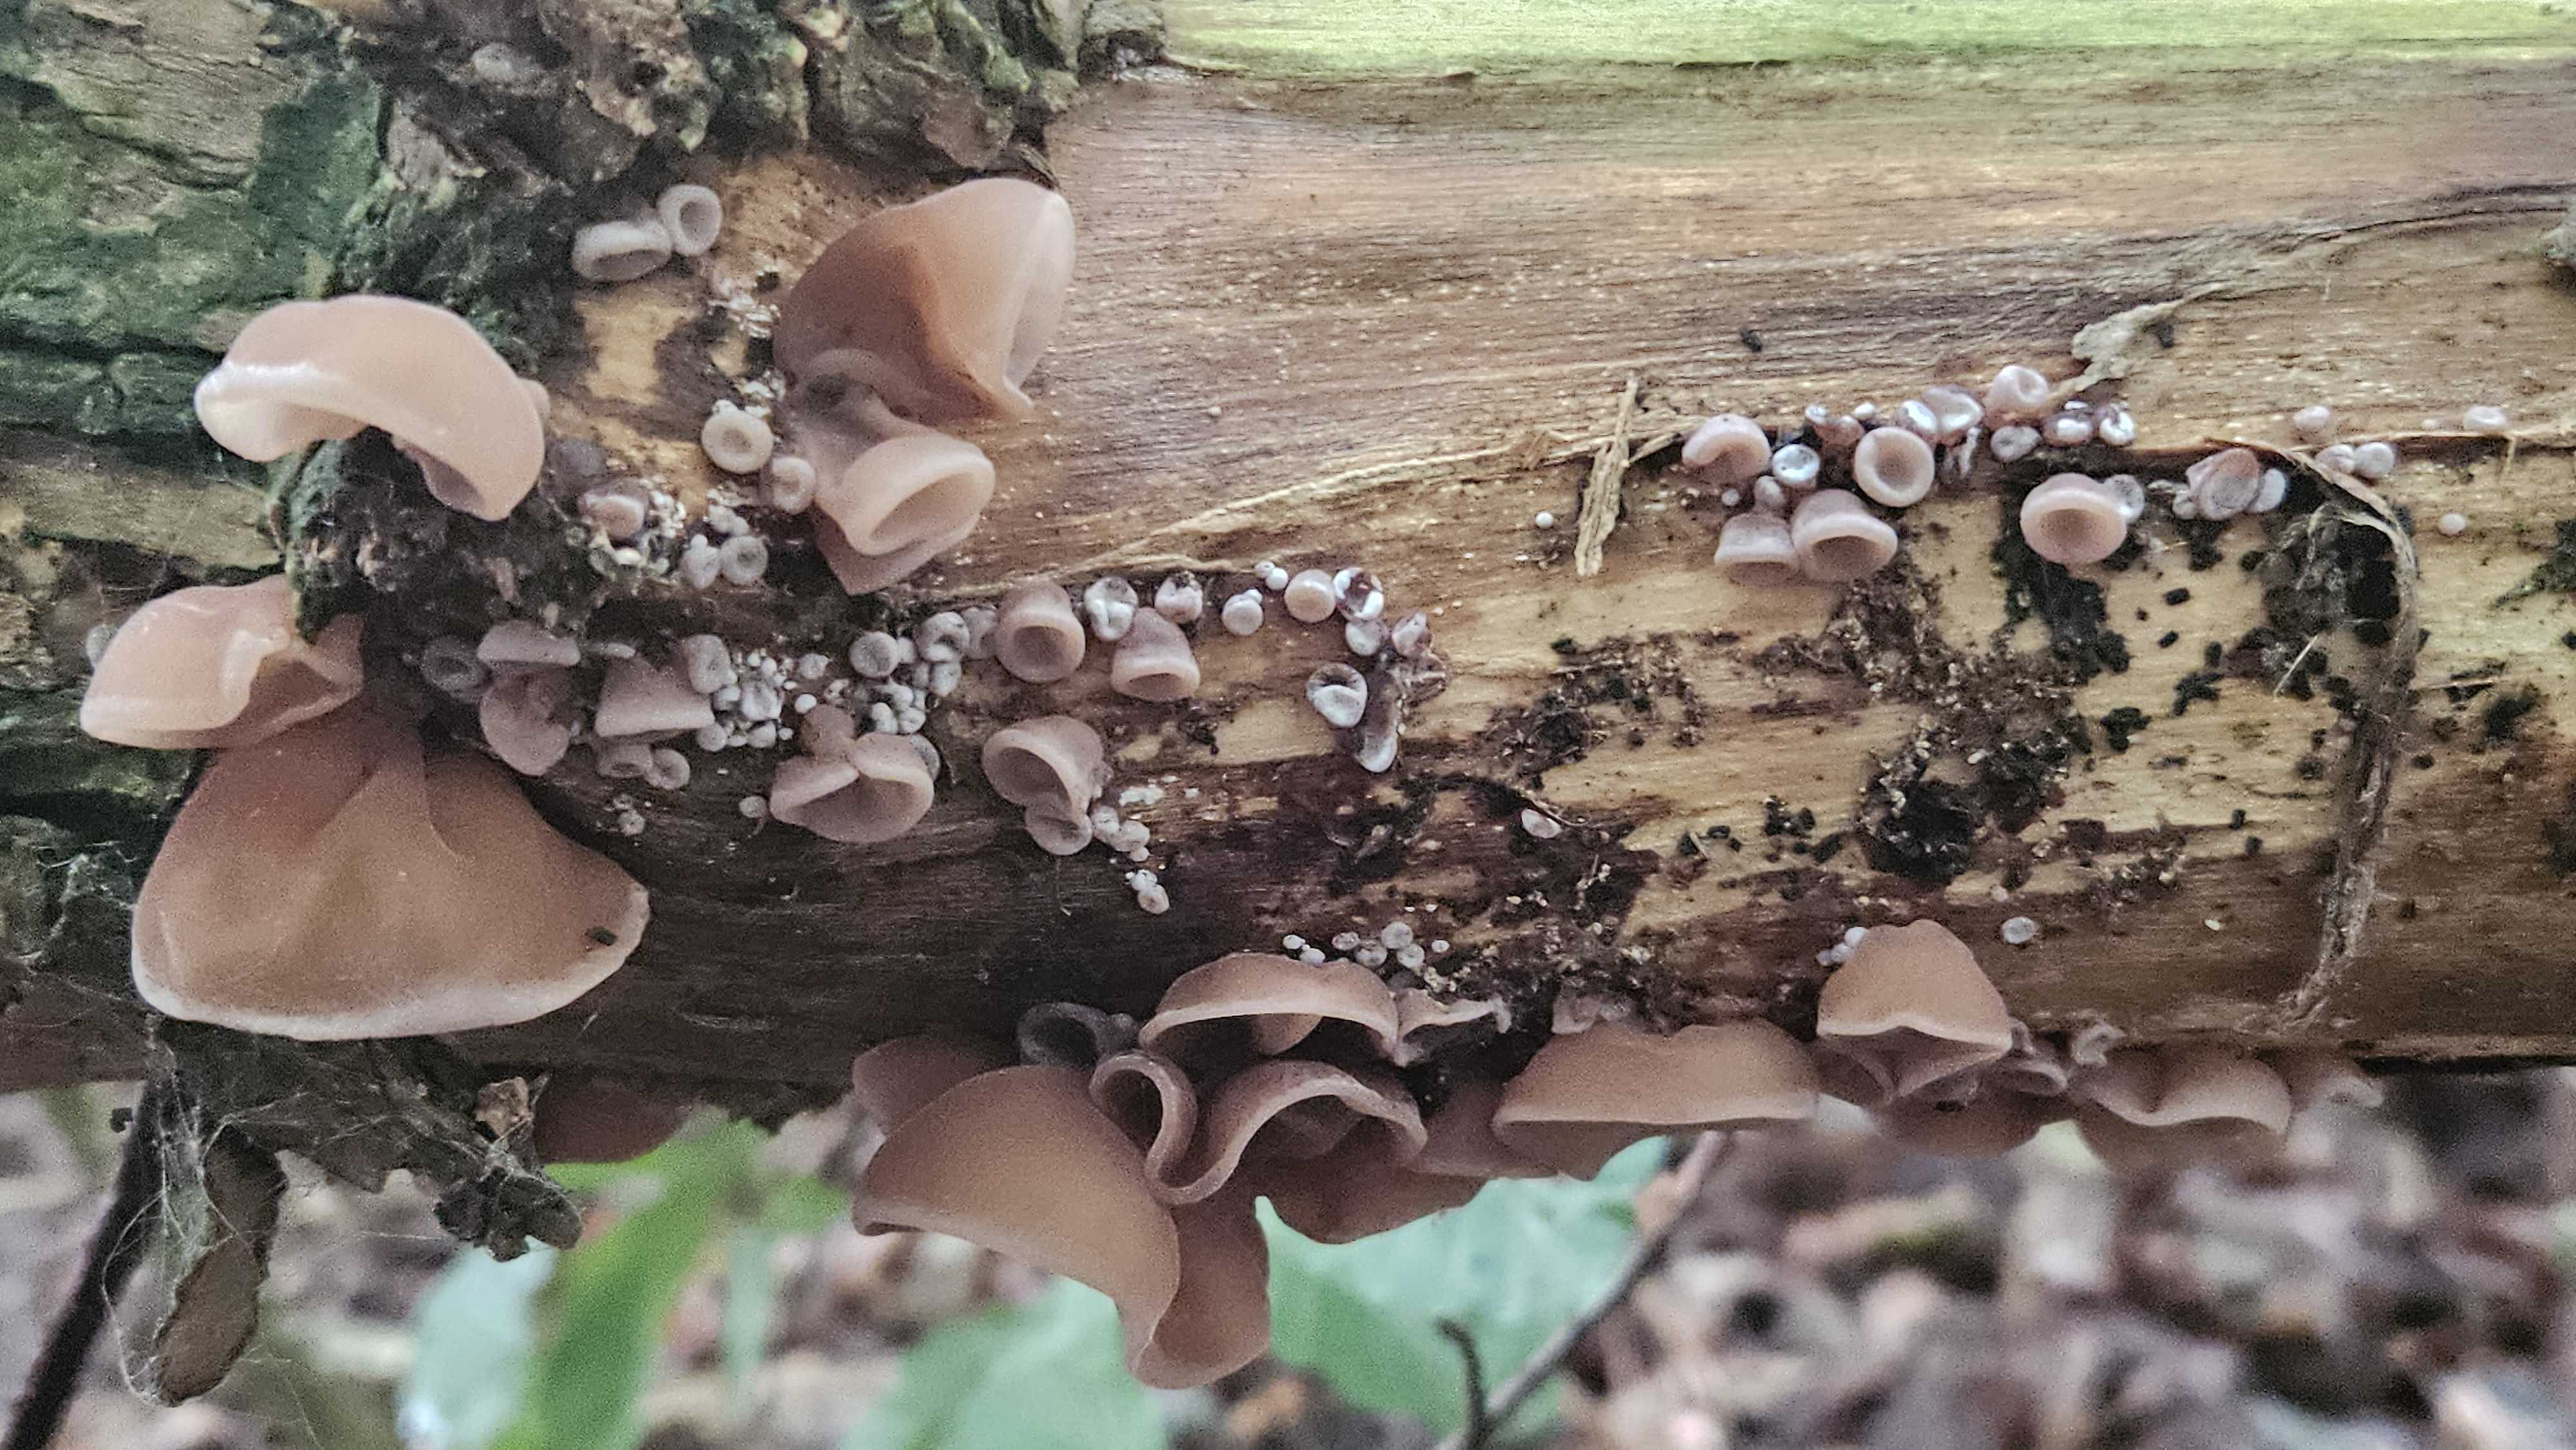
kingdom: Fungi
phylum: Basidiomycota
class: Agaricomycetes
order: Auriculariales
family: Auriculariaceae
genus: Auricularia
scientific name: Auricularia auricula-judae
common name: almindelig judasøre
